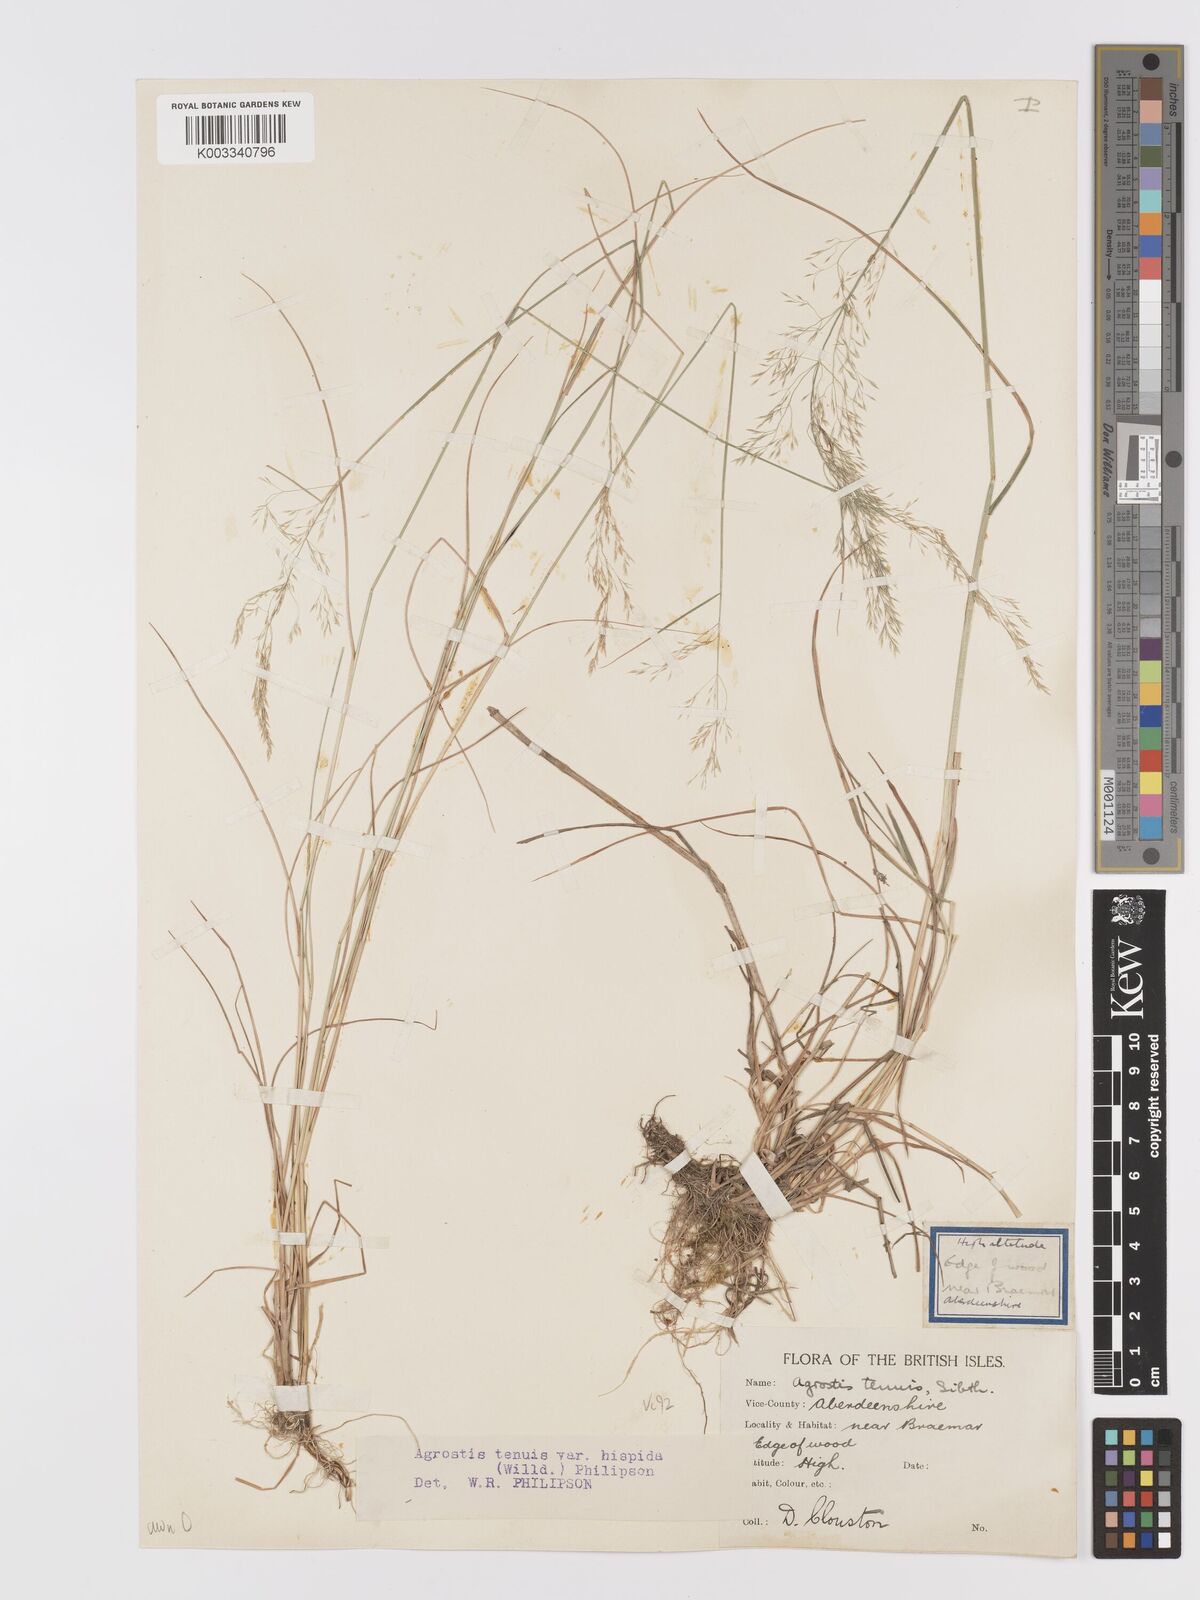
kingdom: Plantae
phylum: Tracheophyta
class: Liliopsida
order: Poales
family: Poaceae
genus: Agrostis
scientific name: Agrostis capillaris
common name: Colonial bentgrass
